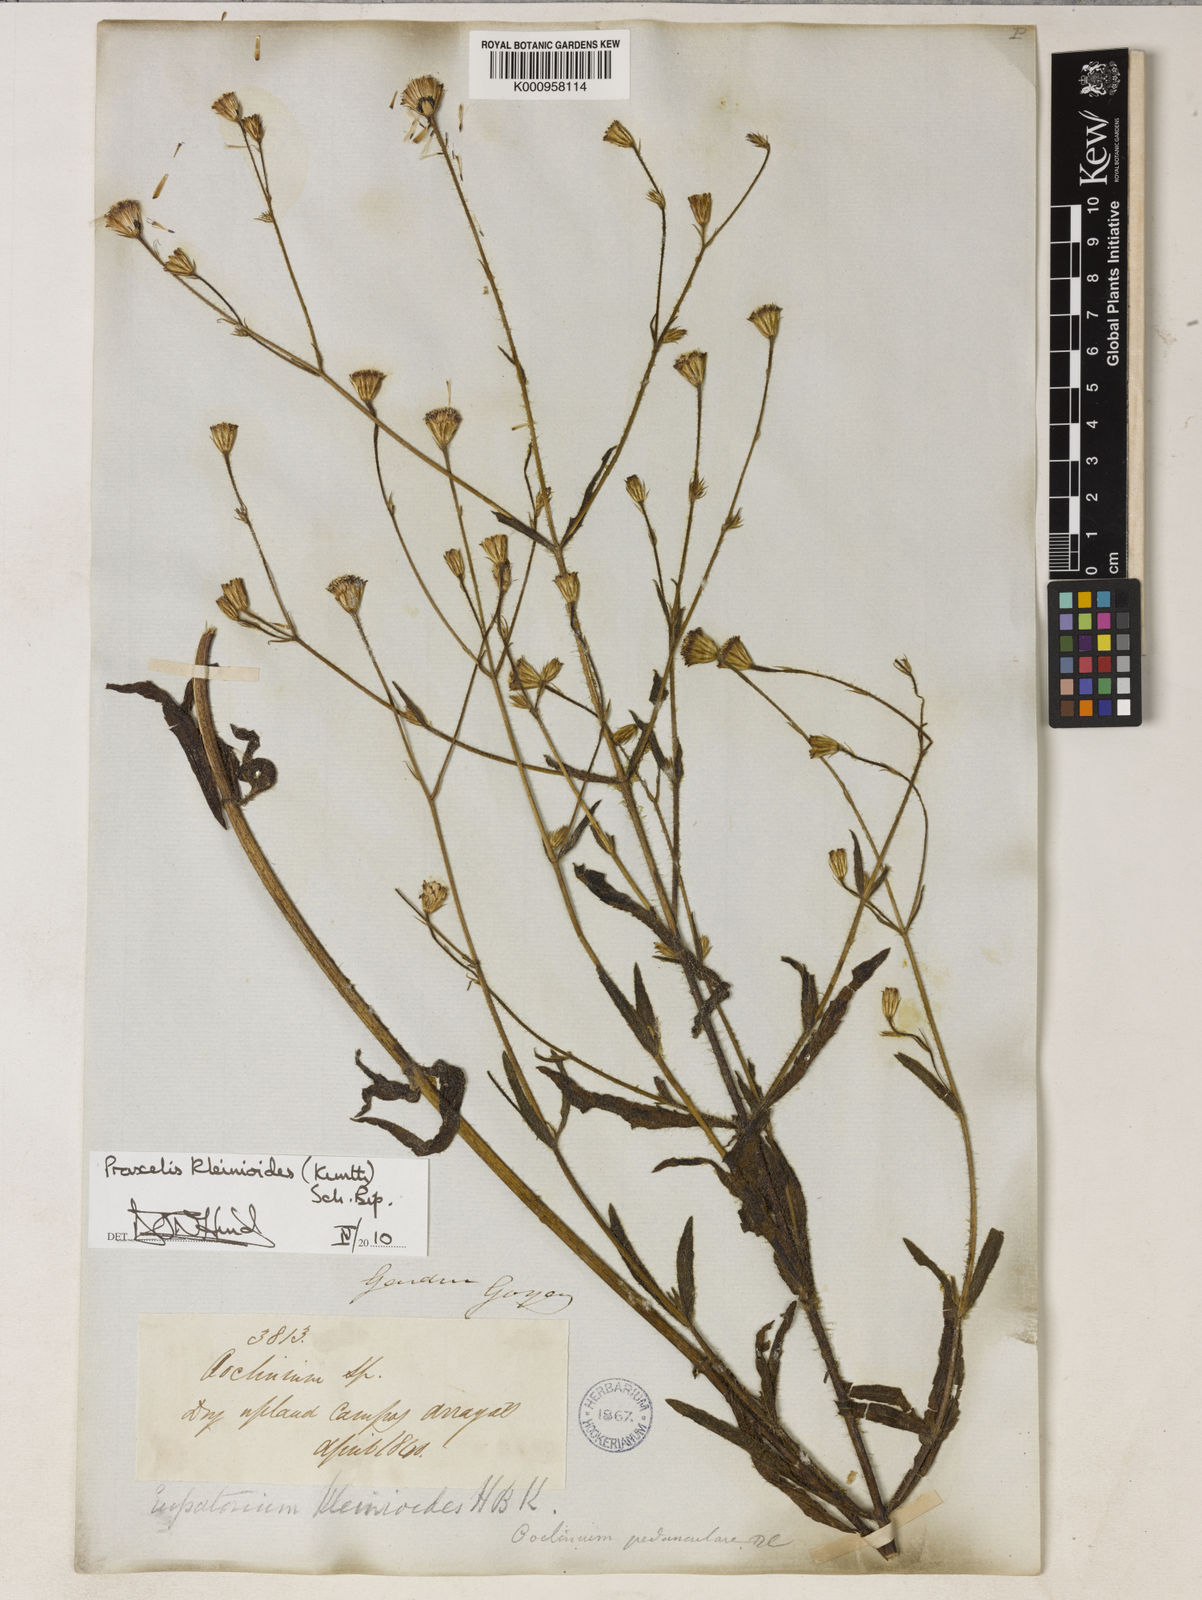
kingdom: Plantae
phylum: Tracheophyta
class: Magnoliopsida
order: Asterales
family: Asteraceae
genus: Praxelis
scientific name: Praxelis kleinioides
